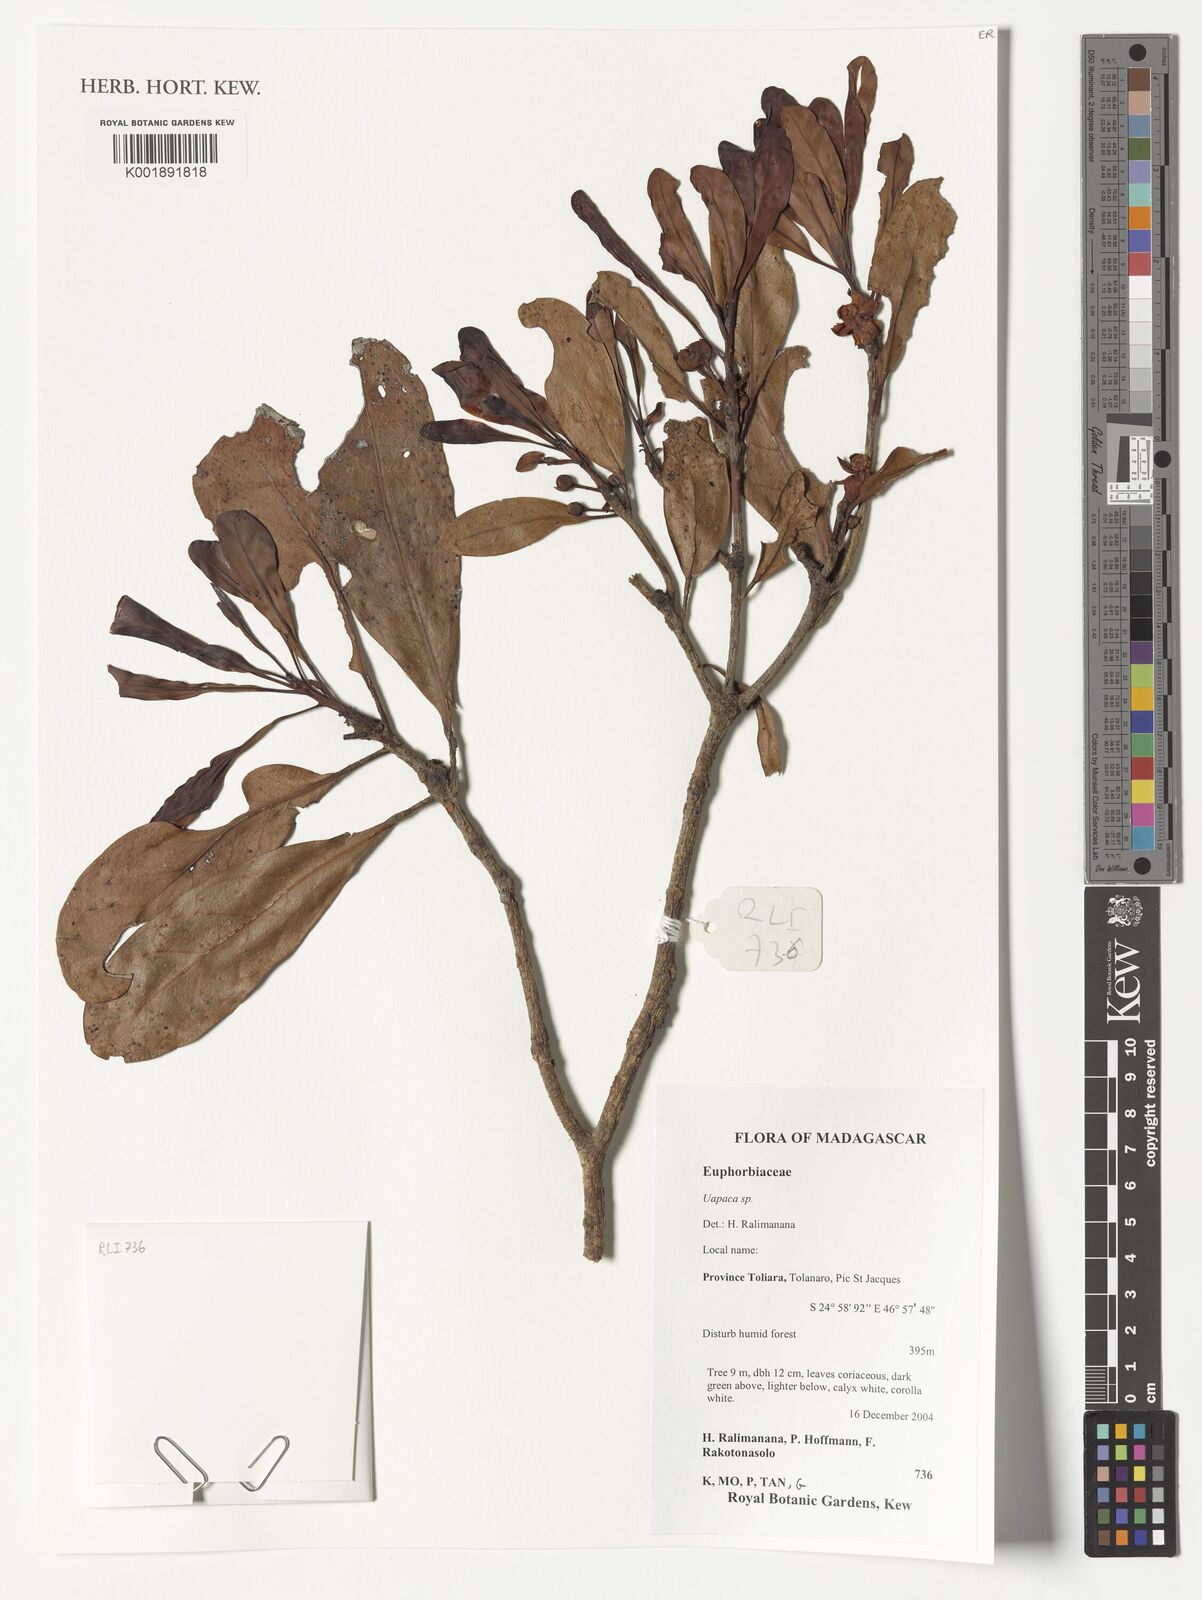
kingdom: Plantae
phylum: Tracheophyta
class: Magnoliopsida
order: Malpighiales
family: Phyllanthaceae
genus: Uapaca
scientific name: Uapaca
